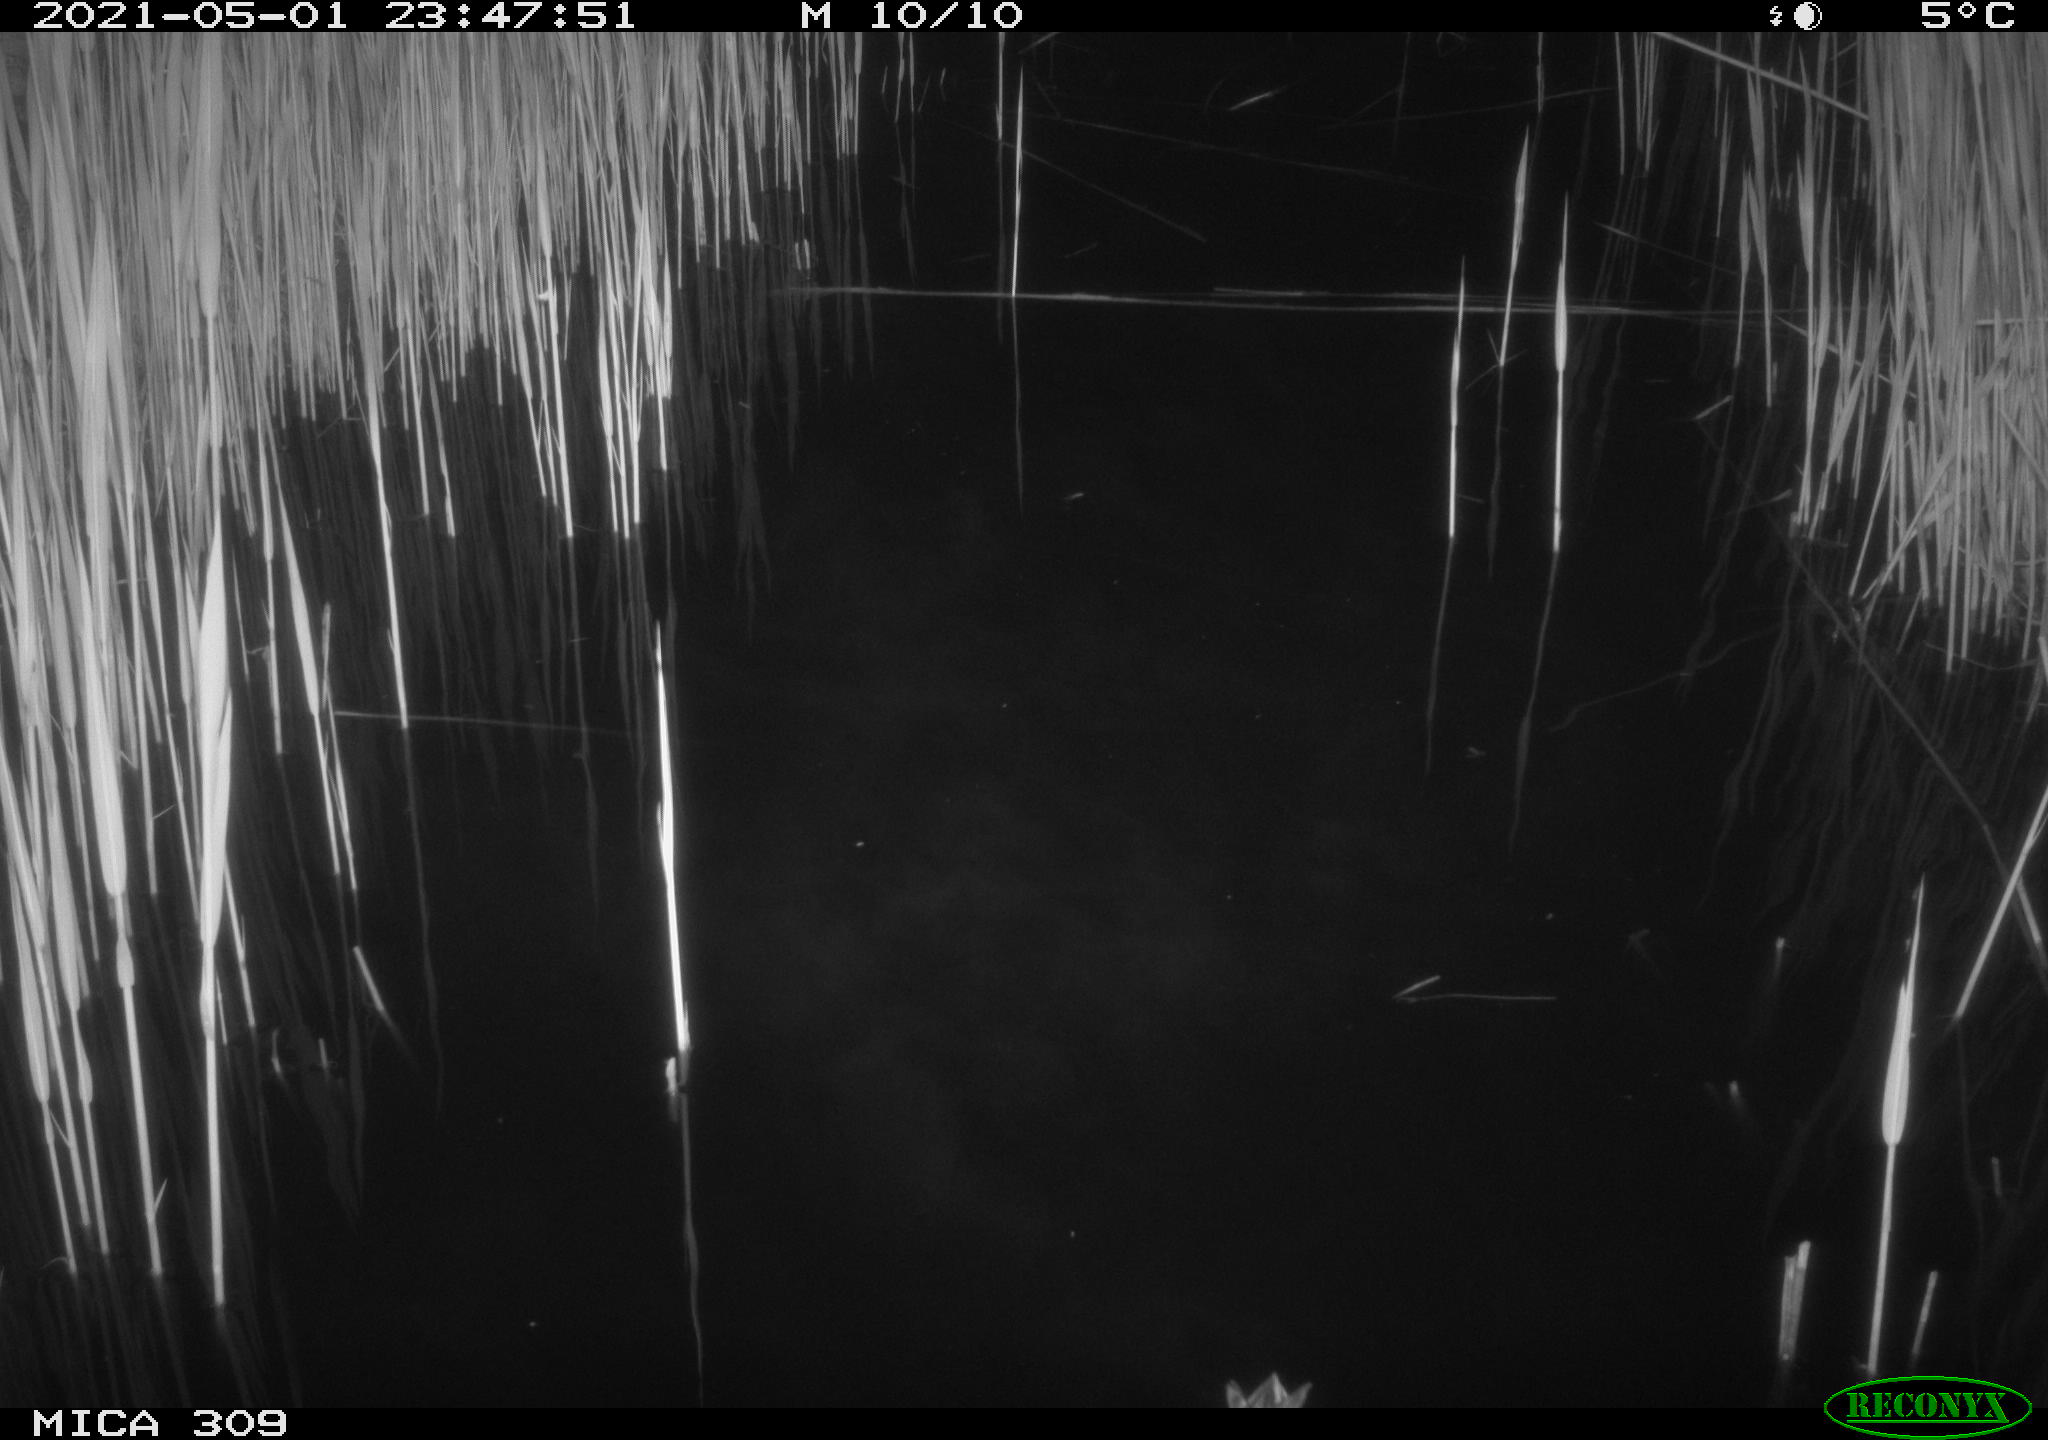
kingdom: Animalia
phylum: Chordata
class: Aves
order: Anseriformes
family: Anatidae
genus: Anas
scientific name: Anas platyrhynchos
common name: Mallard
